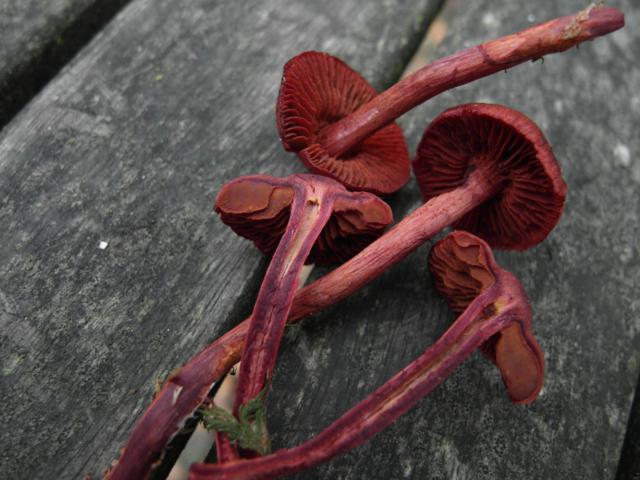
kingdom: Fungi
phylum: Basidiomycota
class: Agaricomycetes
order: Agaricales
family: Cortinariaceae
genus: Cortinarius
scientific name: Cortinarius sanguineus
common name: blodrød slørhat
